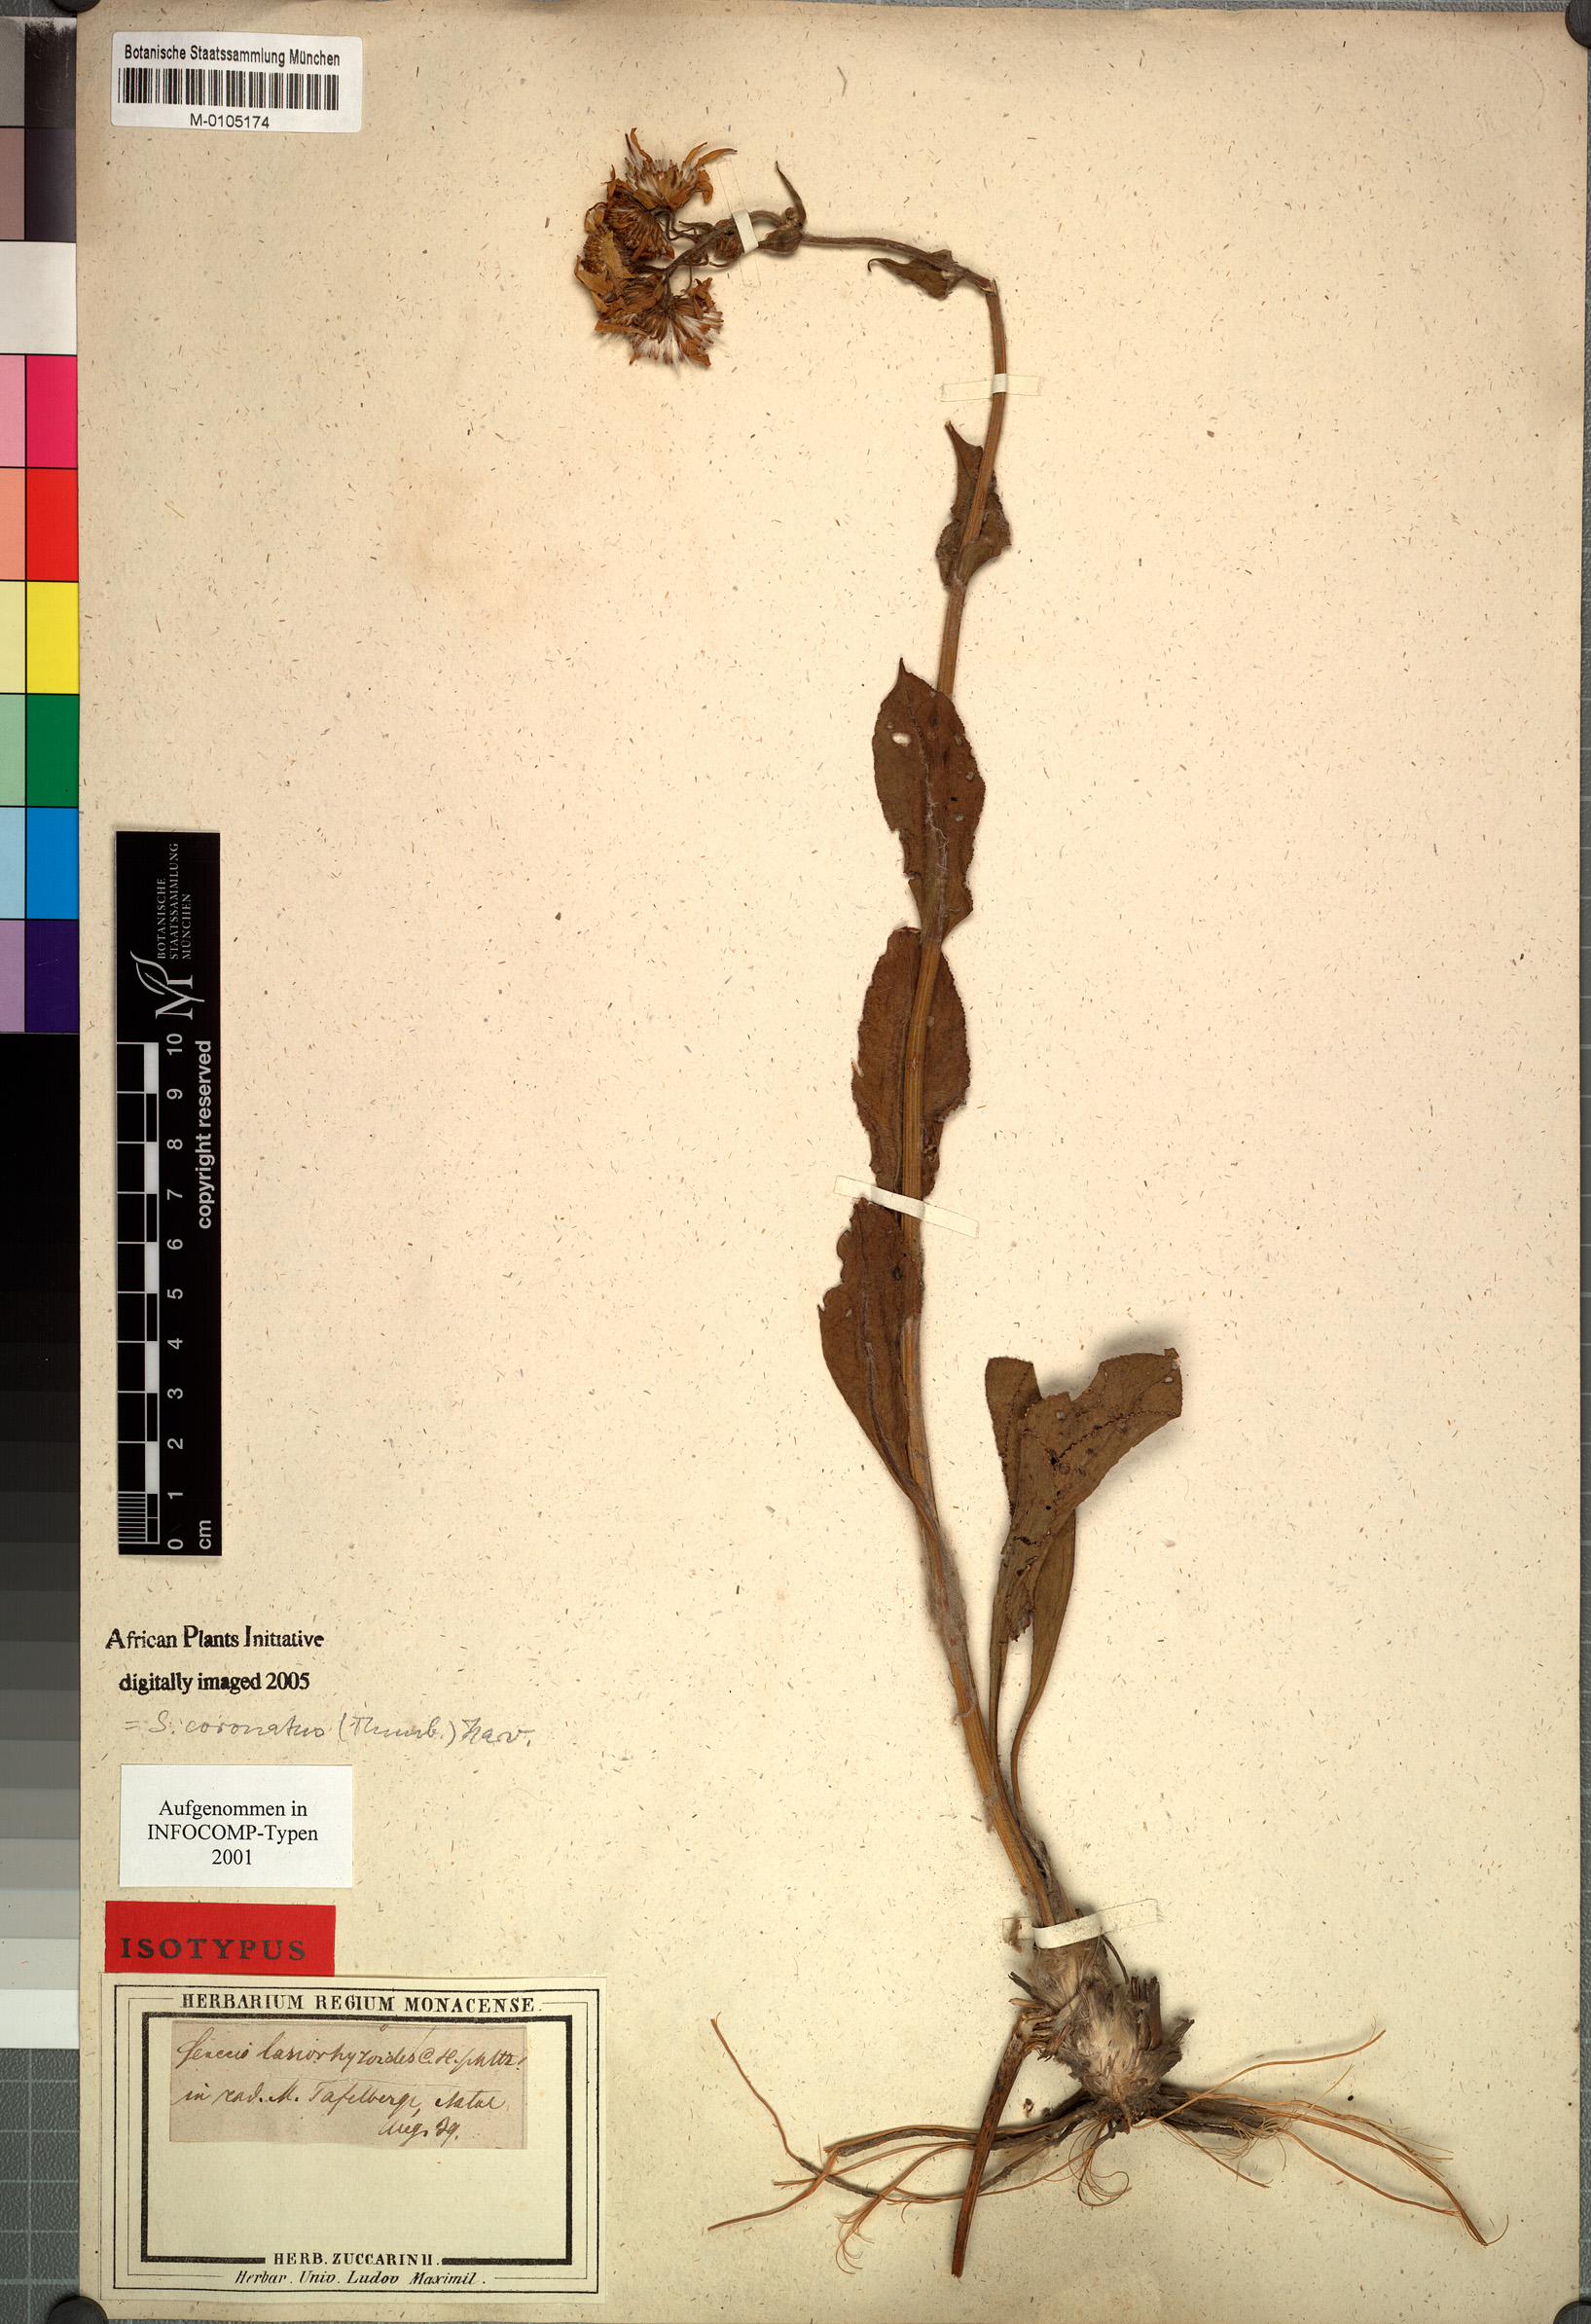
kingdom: Plantae
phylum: Tracheophyta
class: Magnoliopsida
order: Asterales
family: Asteraceae
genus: Senecio
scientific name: Senecio coronatus
